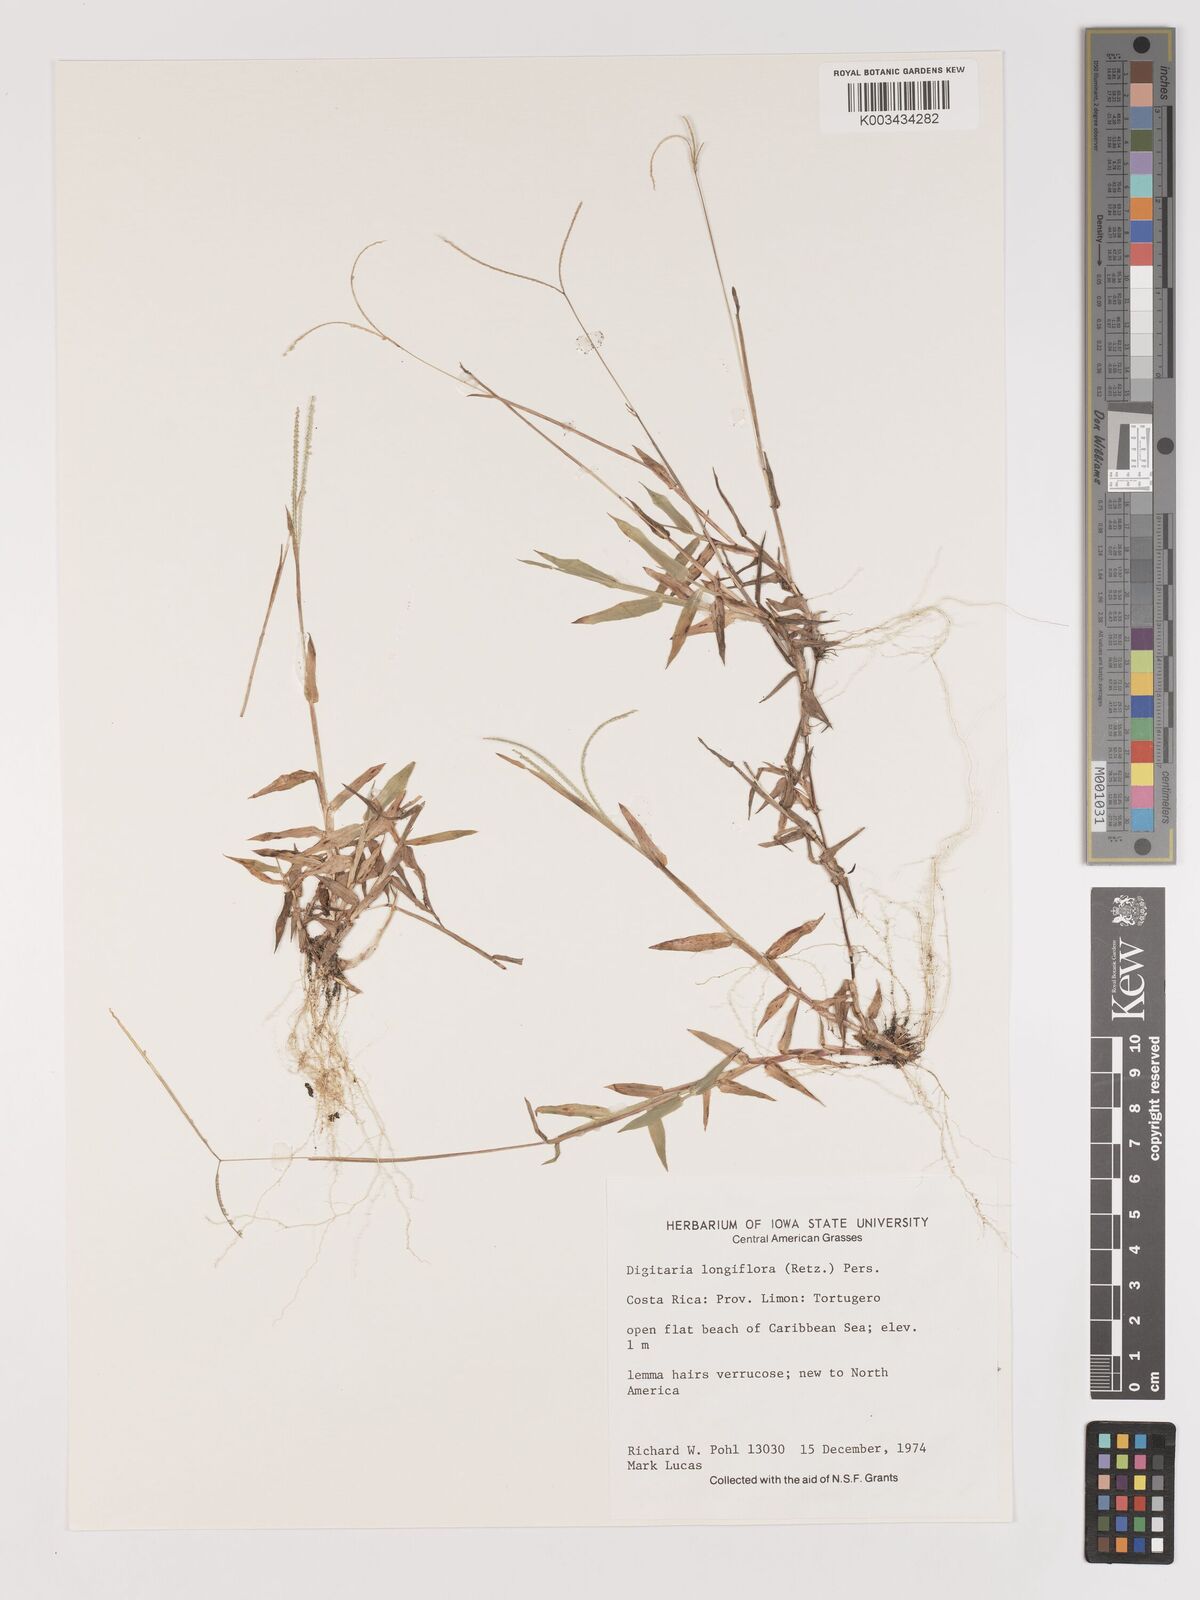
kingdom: Plantae
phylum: Tracheophyta
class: Liliopsida
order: Poales
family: Poaceae
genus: Digitaria
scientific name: Digitaria longiflora
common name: Wire crabgrass
